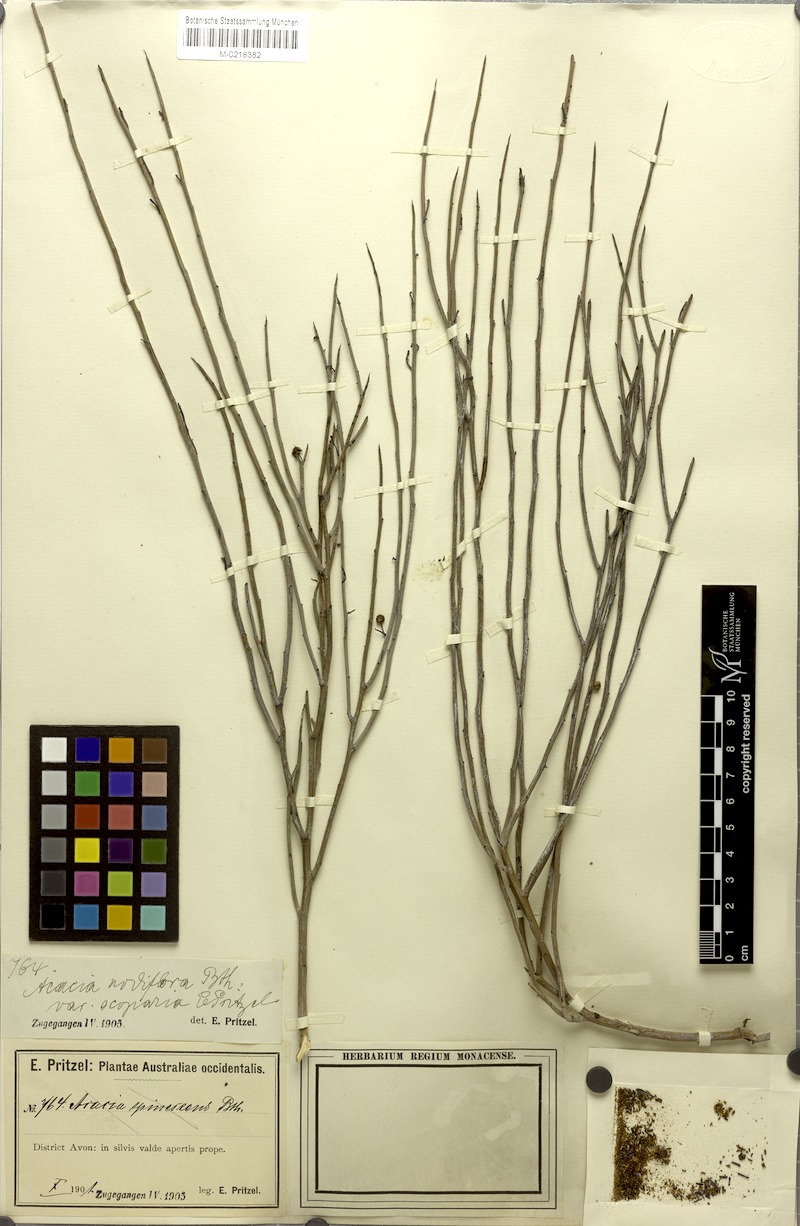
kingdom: Plantae
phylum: Tracheophyta
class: Magnoliopsida
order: Fabales
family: Fabaceae
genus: Acacia
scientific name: Acacia deficiens
